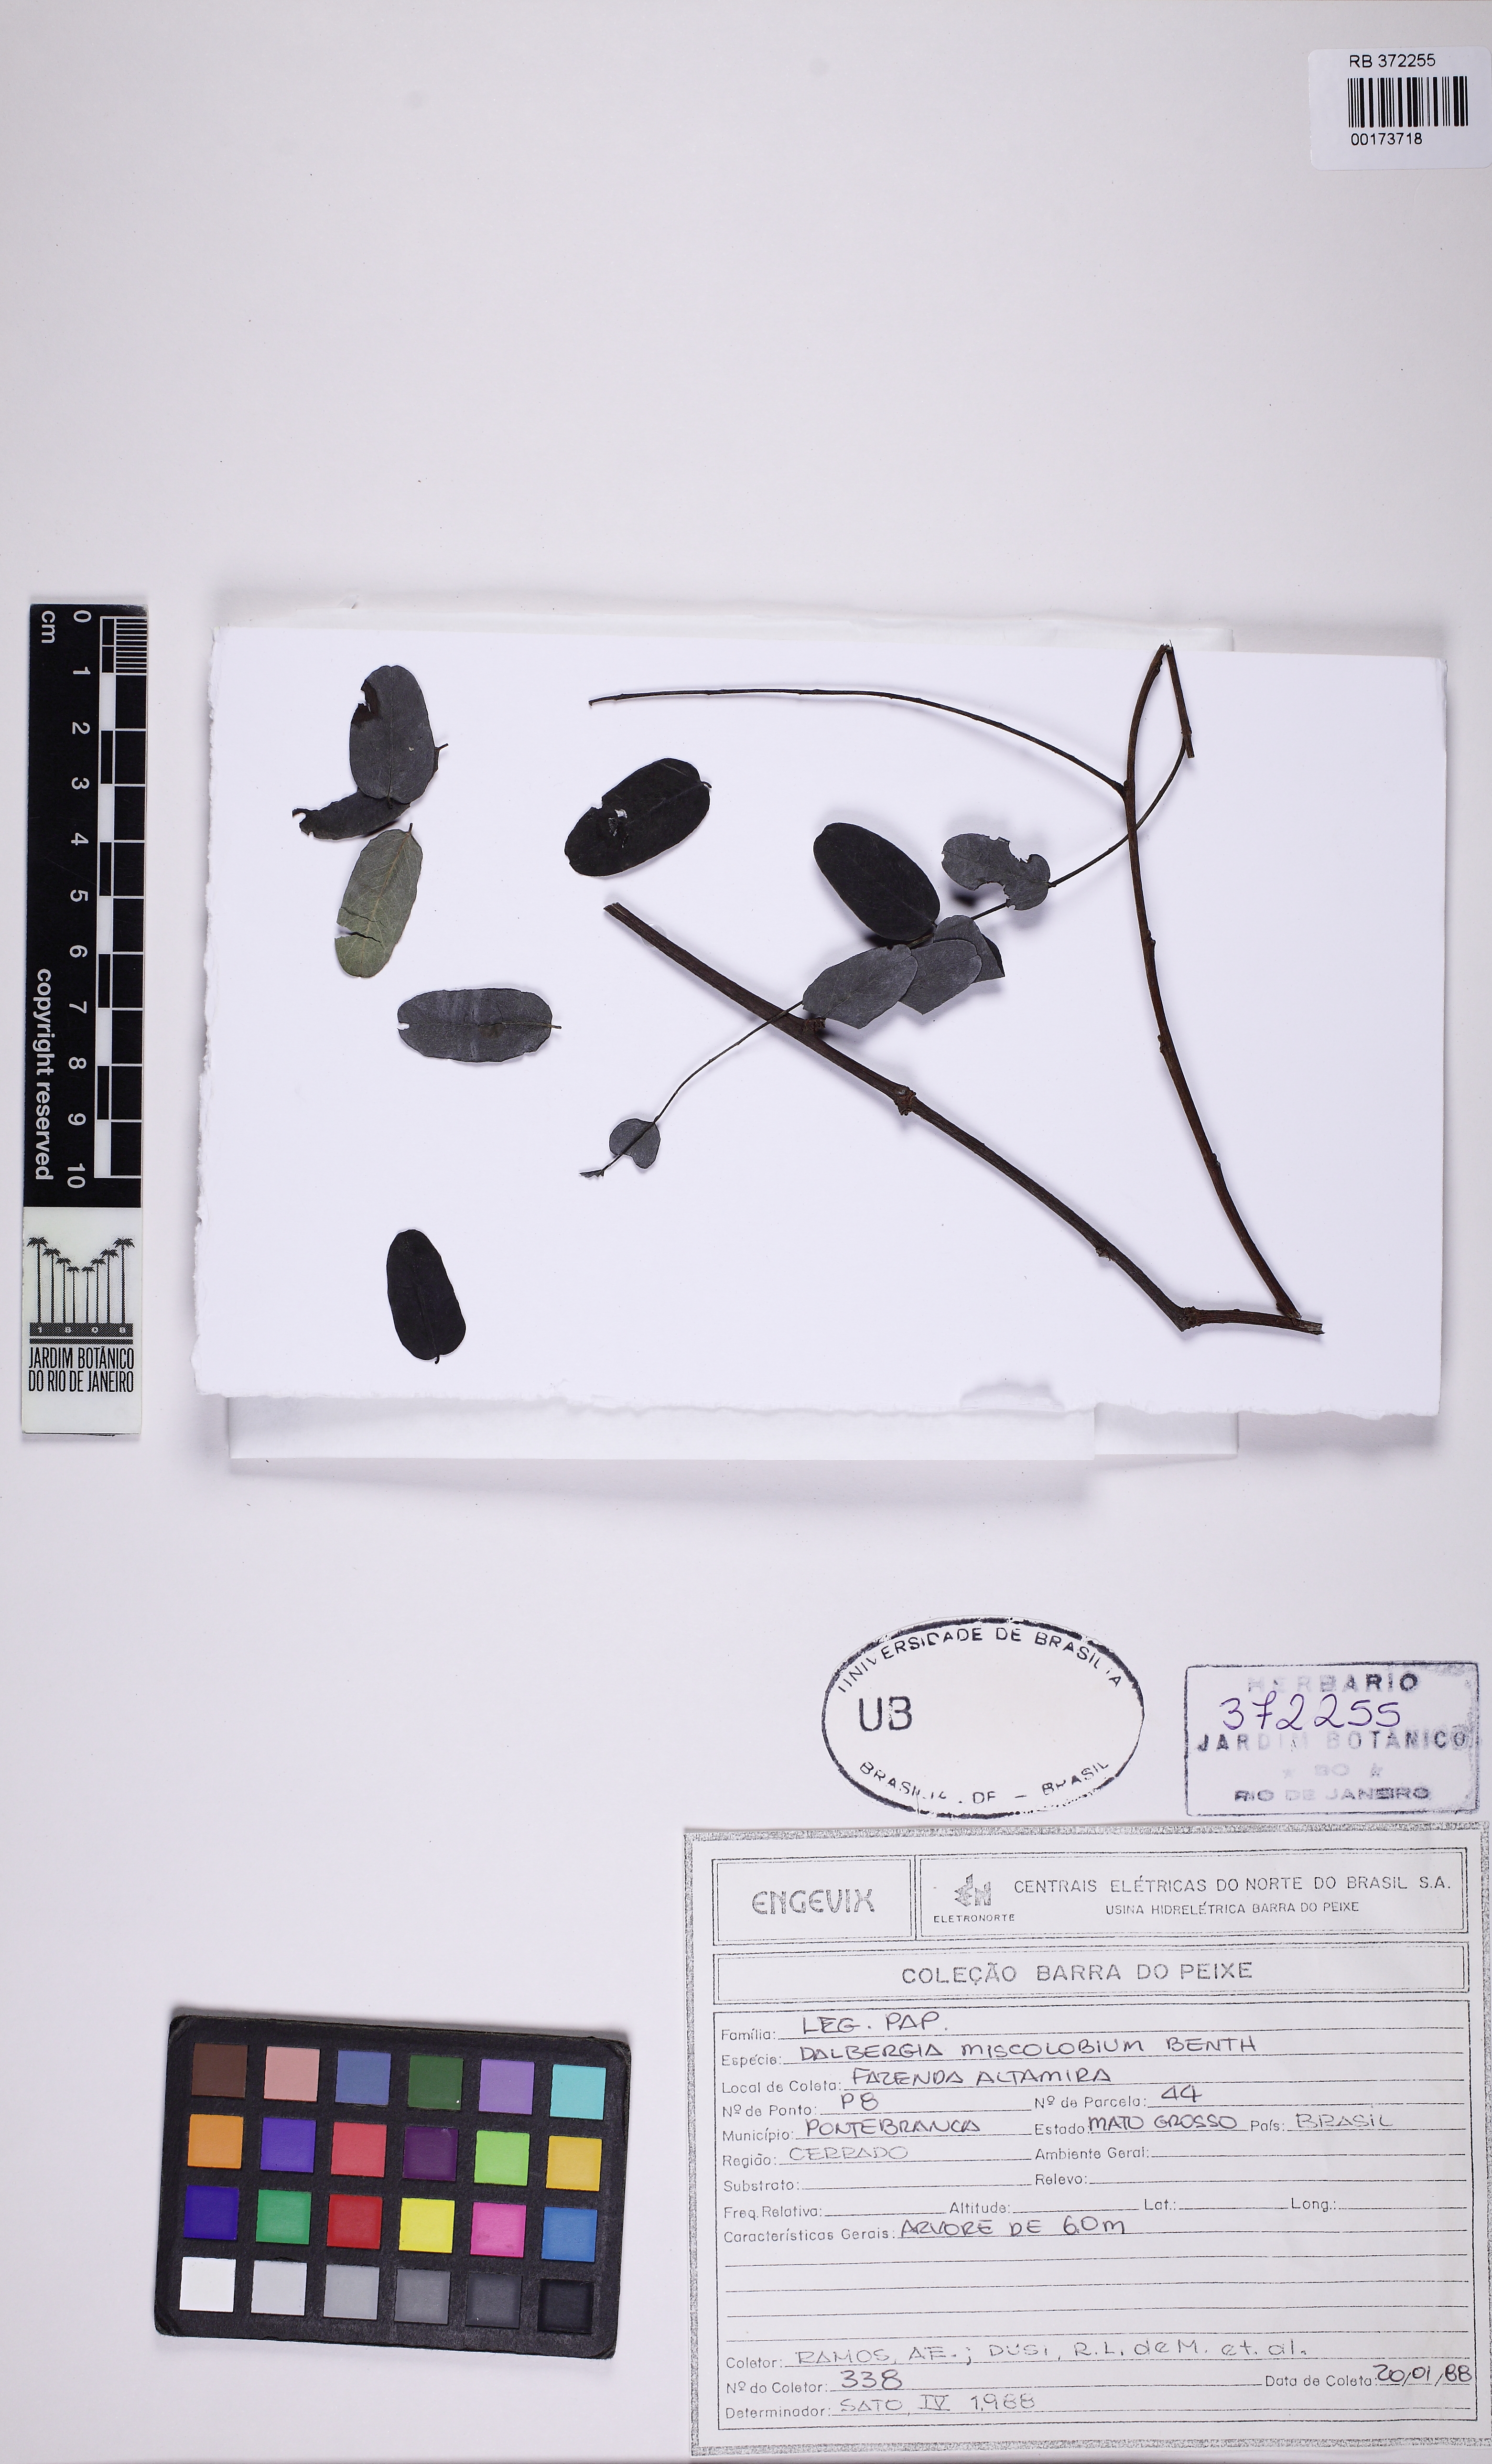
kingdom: Plantae
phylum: Tracheophyta
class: Magnoliopsida
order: Fabales
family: Fabaceae
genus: Dalbergia
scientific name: Dalbergia miscolobium
